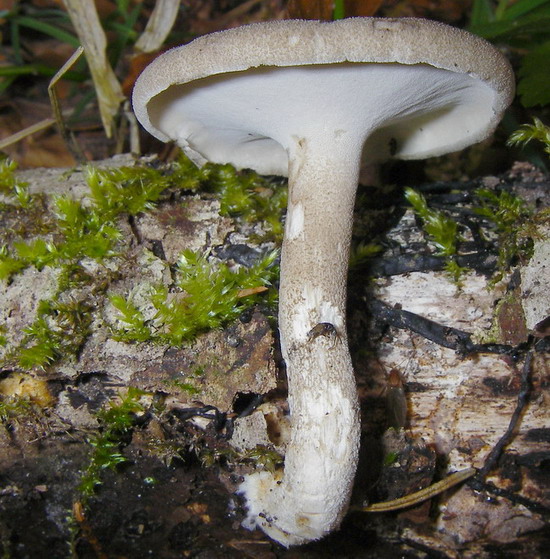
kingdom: Fungi
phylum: Basidiomycota
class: Agaricomycetes
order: Polyporales
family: Polyporaceae
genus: Lentinus
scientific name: Lentinus substrictus
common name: forårs-stilkporesvamp
